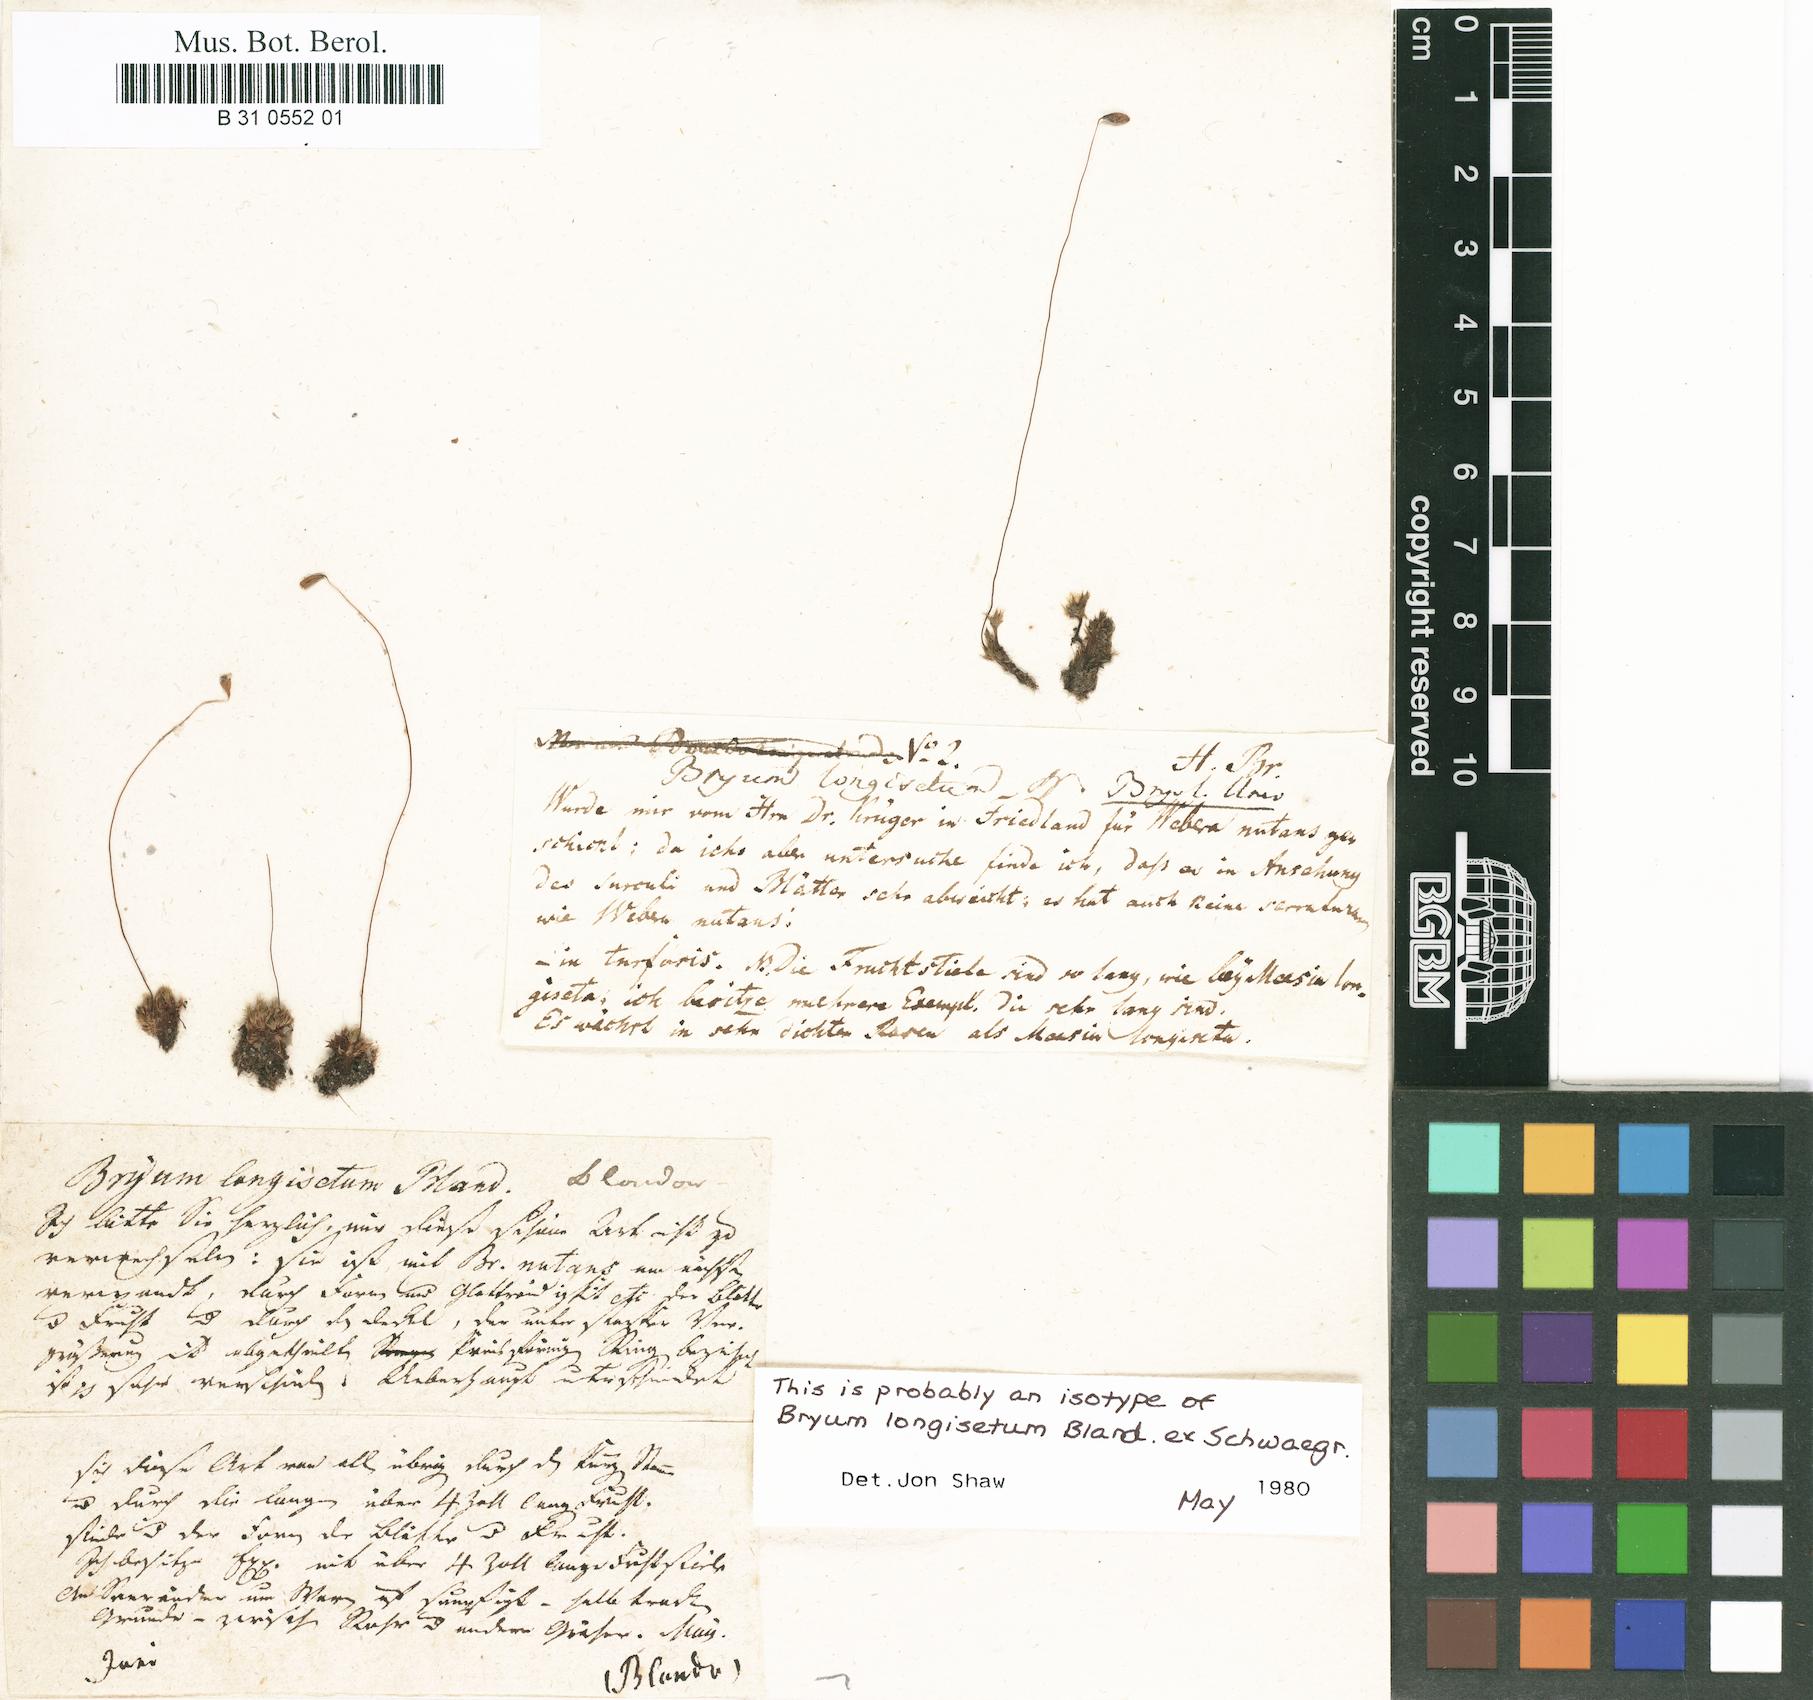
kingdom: Plantae
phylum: Bryophyta
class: Bryopsida
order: Bryales
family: Bryaceae
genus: Ptychostomum
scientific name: Ptychostomum longisetum
